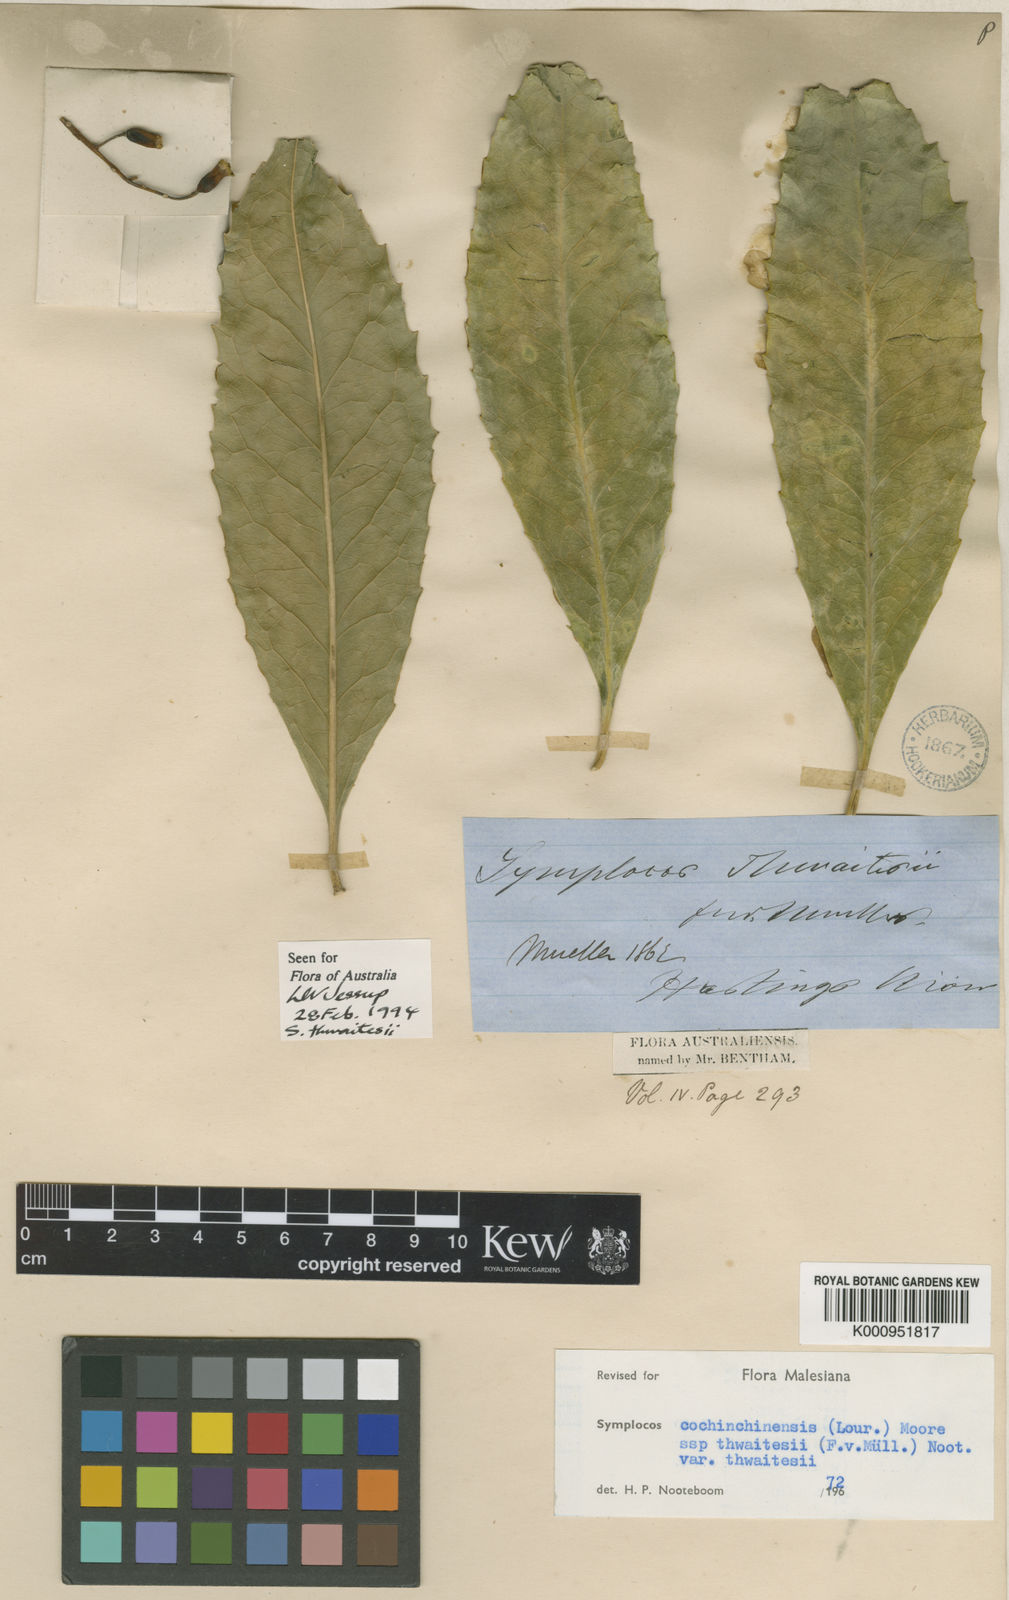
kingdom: Plantae
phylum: Tracheophyta
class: Magnoliopsida
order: Ericales
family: Symplocaceae
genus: Symplocos
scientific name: Symplocos thwaitesii
